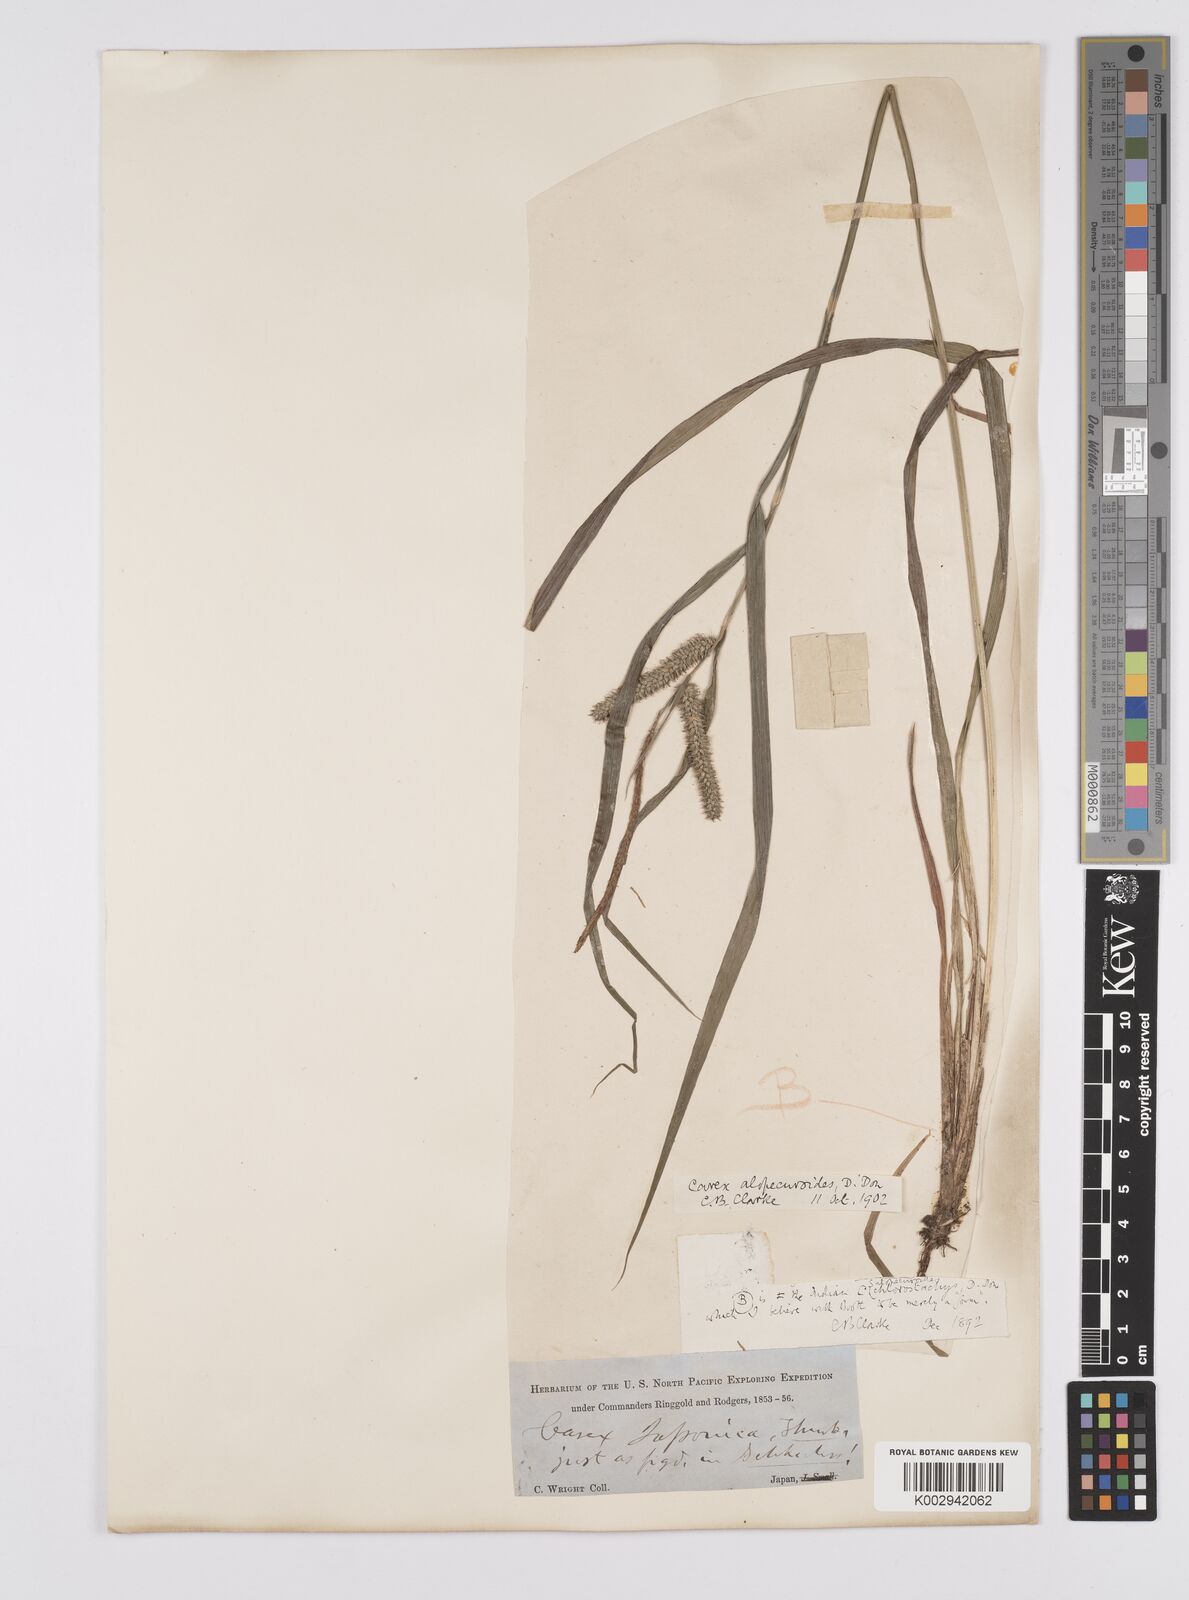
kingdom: Plantae
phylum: Tracheophyta
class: Liliopsida
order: Poales
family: Cyperaceae
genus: Carex
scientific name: Carex japonica
